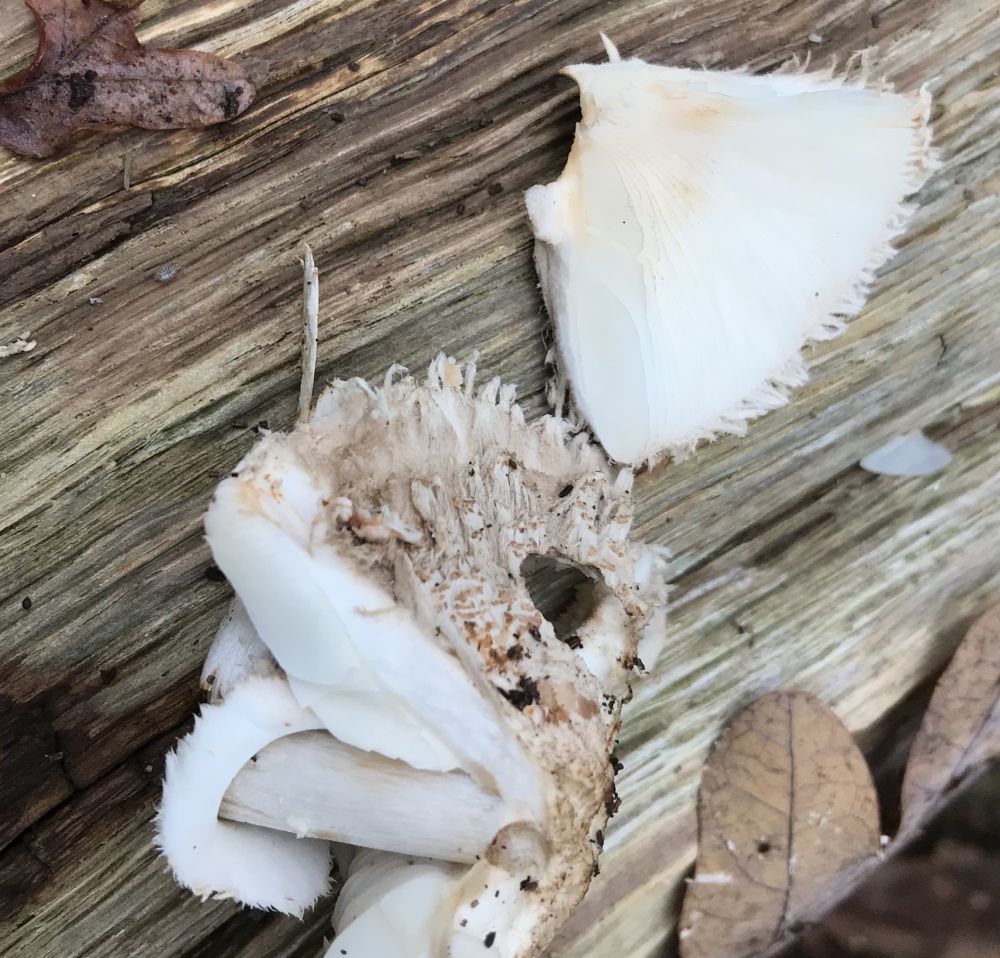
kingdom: Fungi
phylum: Basidiomycota
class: Agaricomycetes
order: Agaricales
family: Agaricaceae
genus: Chlorophyllum
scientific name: Chlorophyllum
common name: rabarberhat
